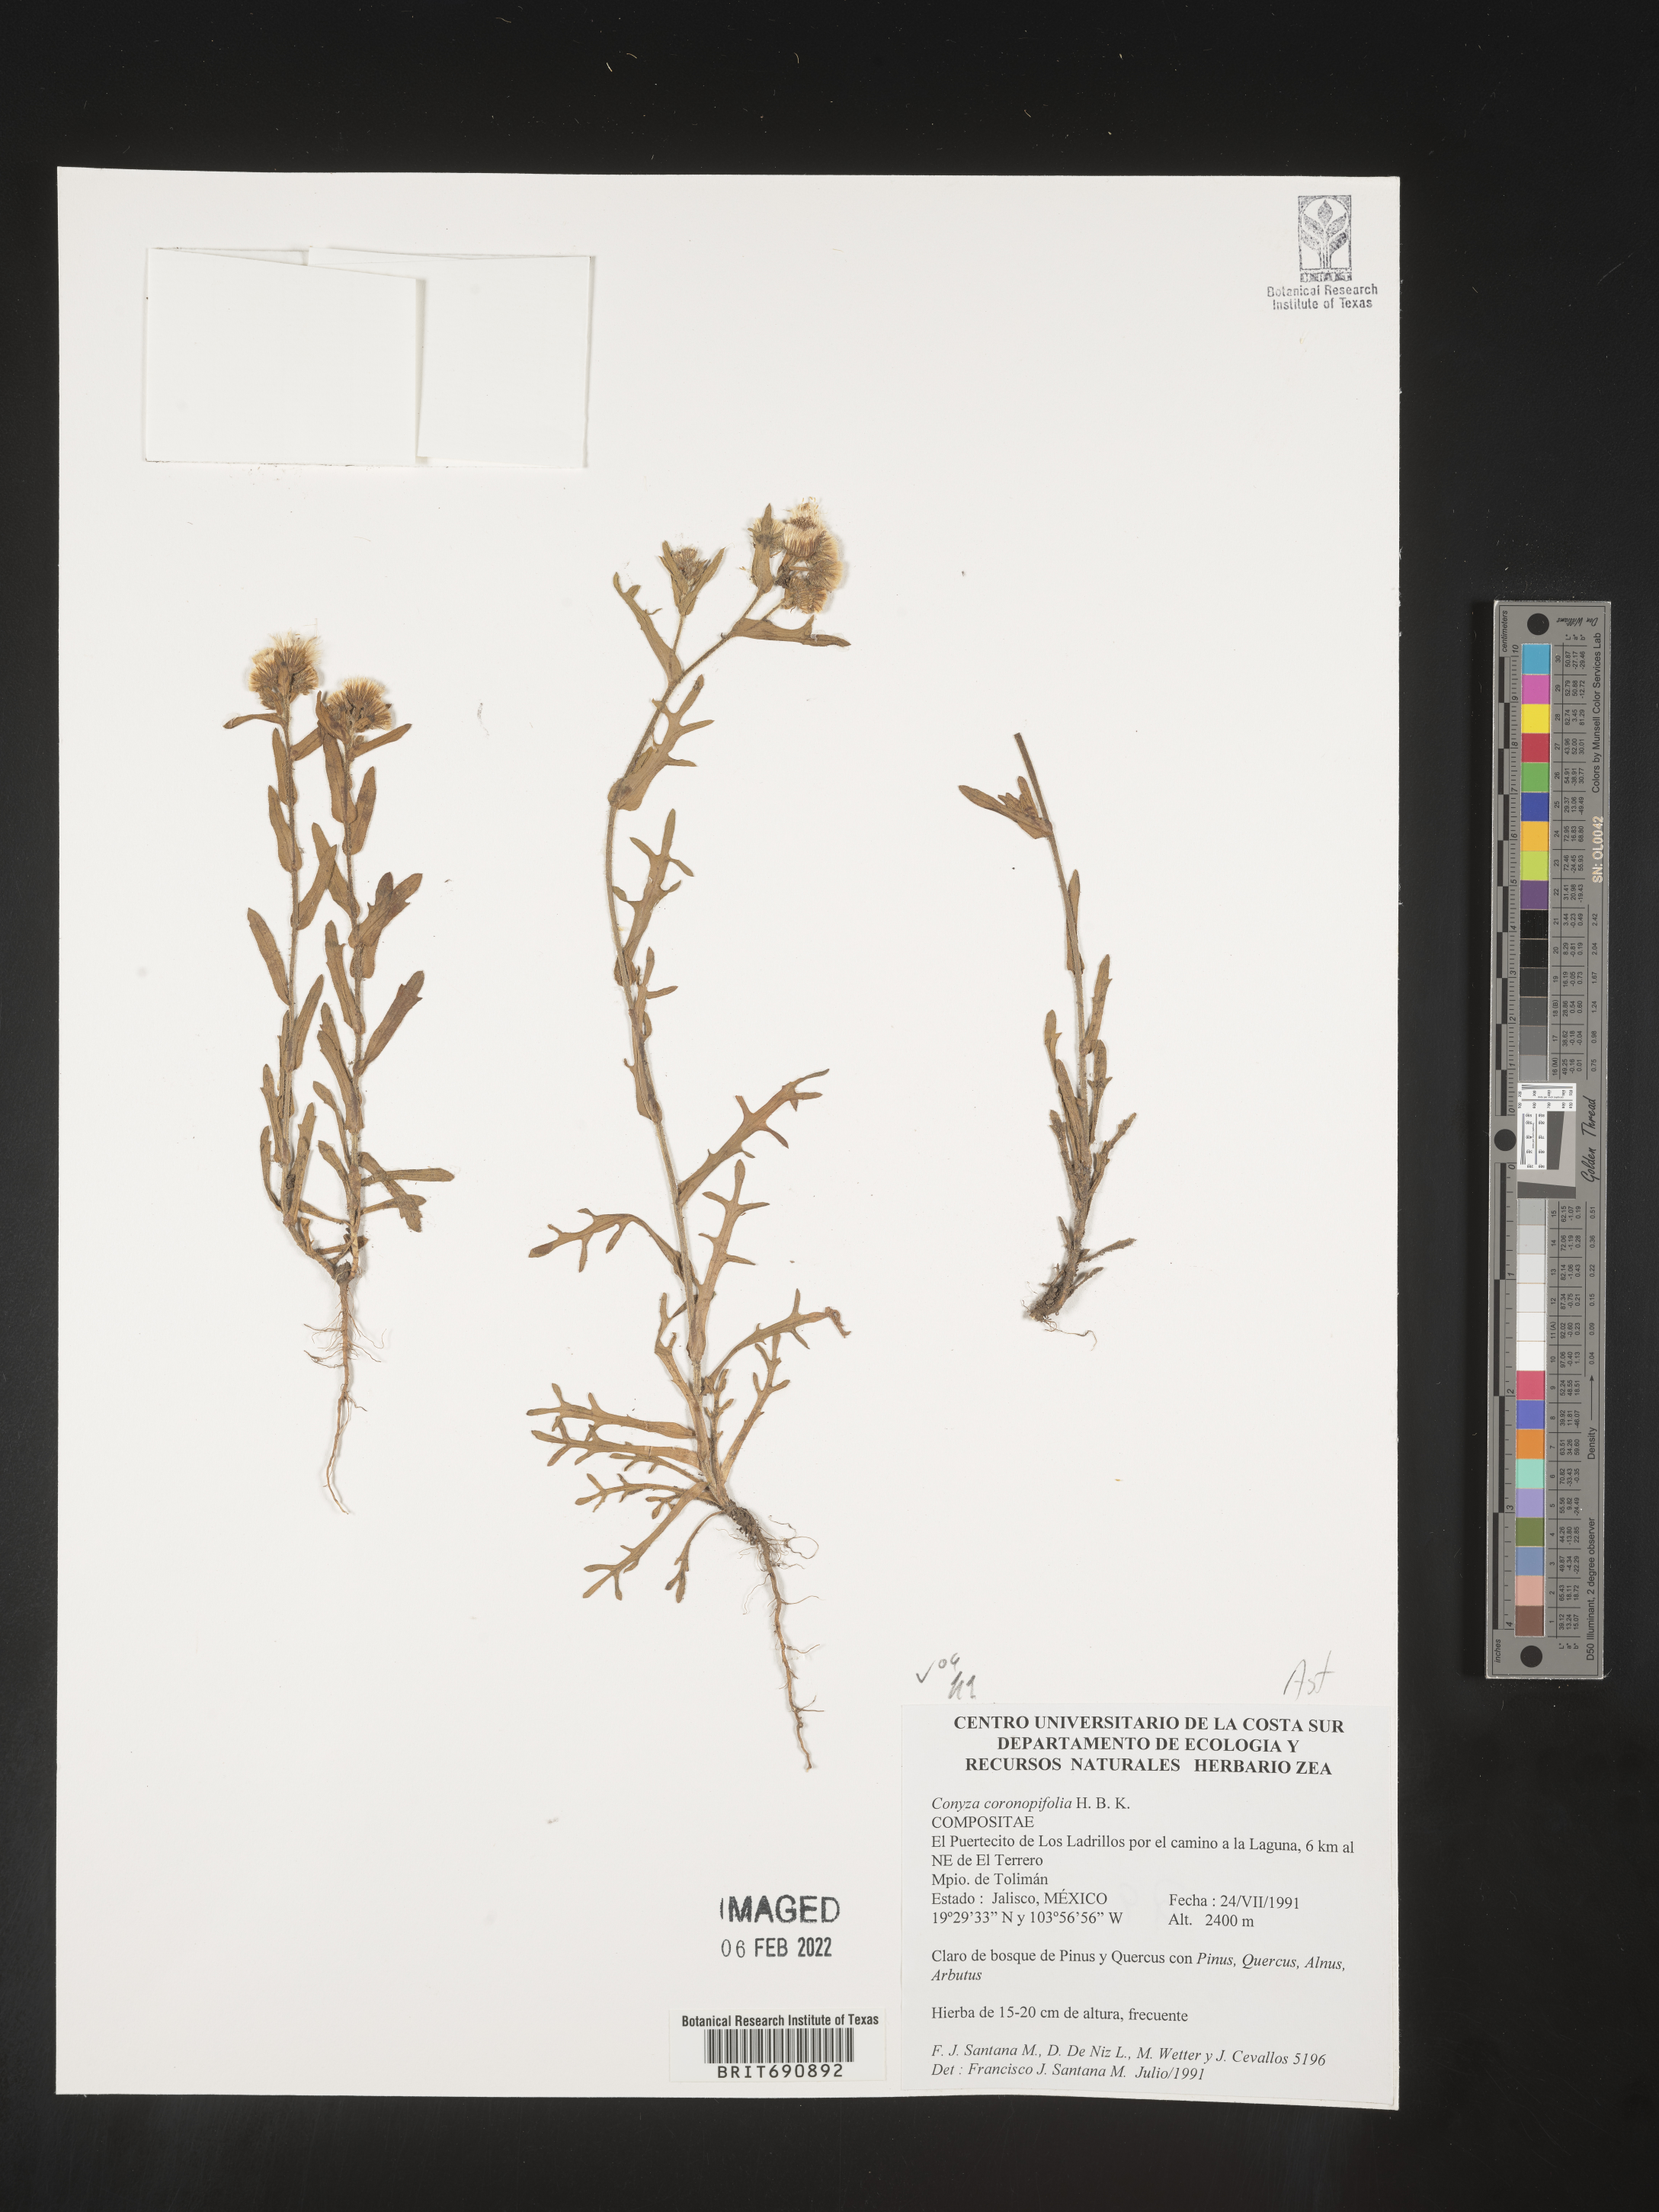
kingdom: Plantae
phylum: Tracheophyta
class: Magnoliopsida
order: Asterales
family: Asteraceae
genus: Erigeron
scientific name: Erigeron variifolius
